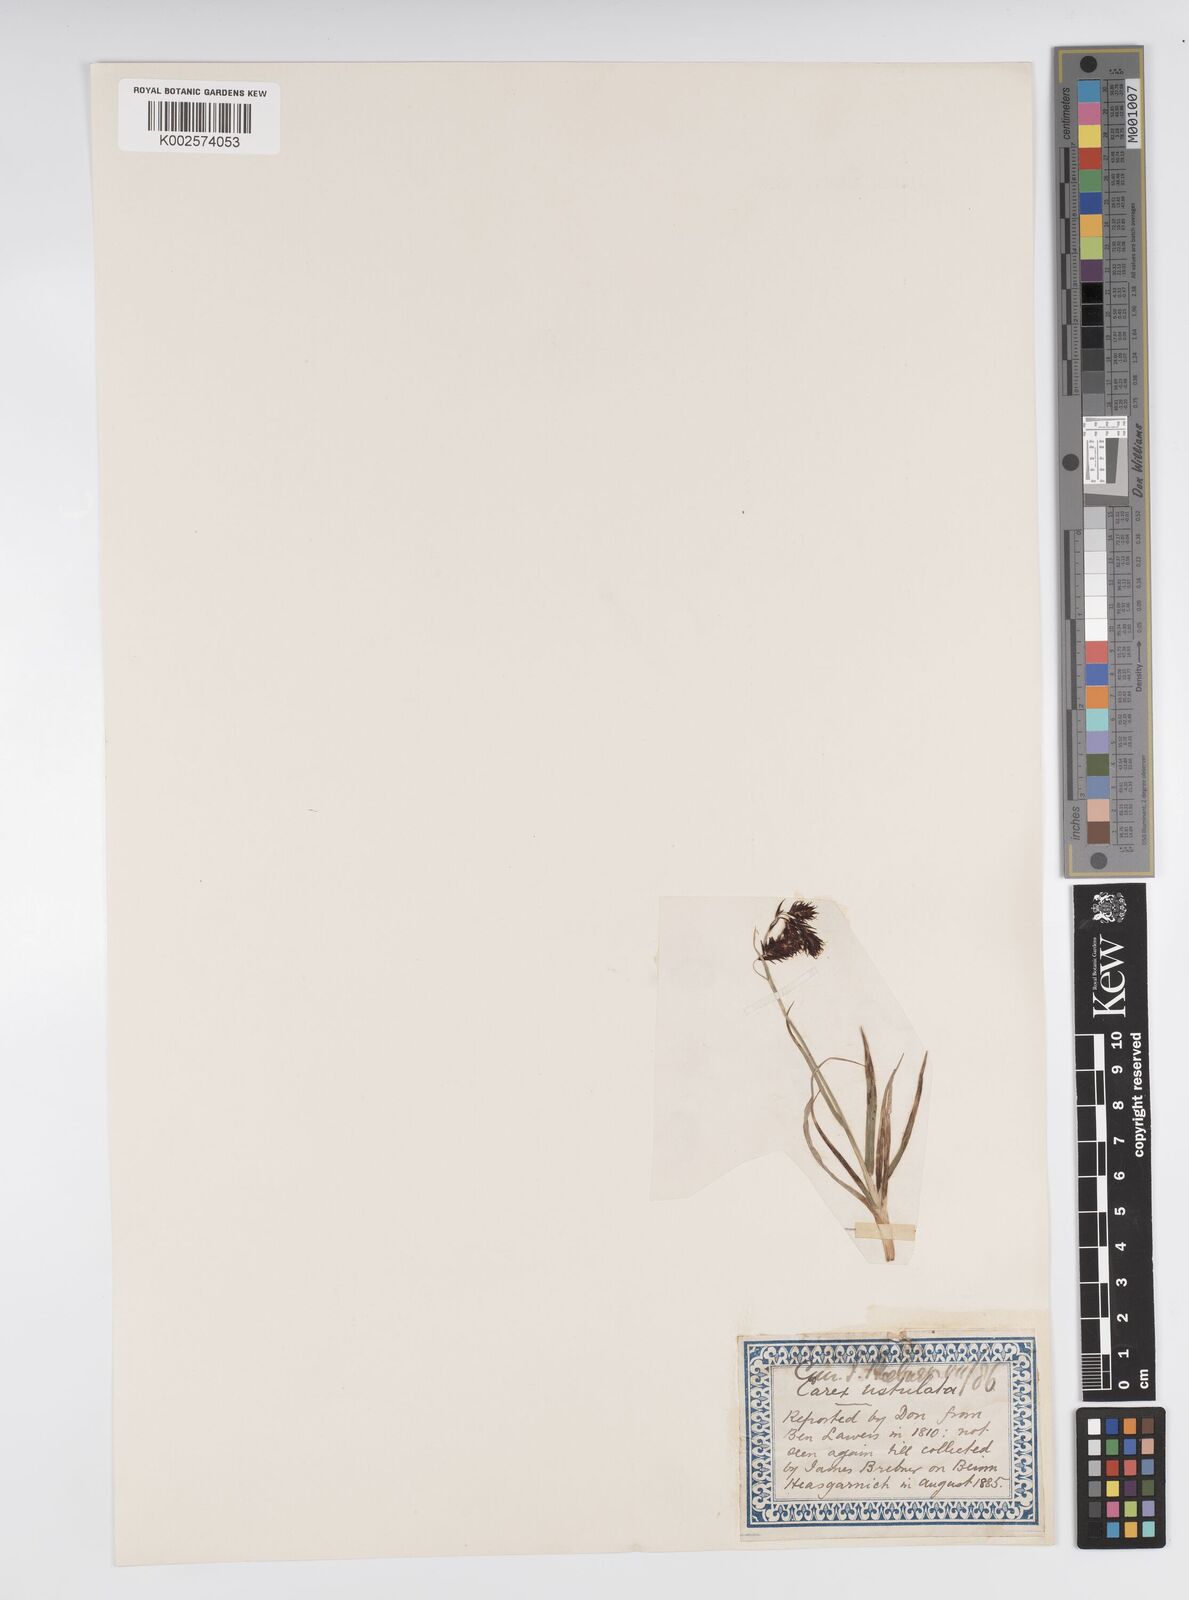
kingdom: Plantae
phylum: Tracheophyta
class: Liliopsida
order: Poales
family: Cyperaceae
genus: Carex
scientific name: Carex atrofusca
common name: Scorched alpine-sedge
